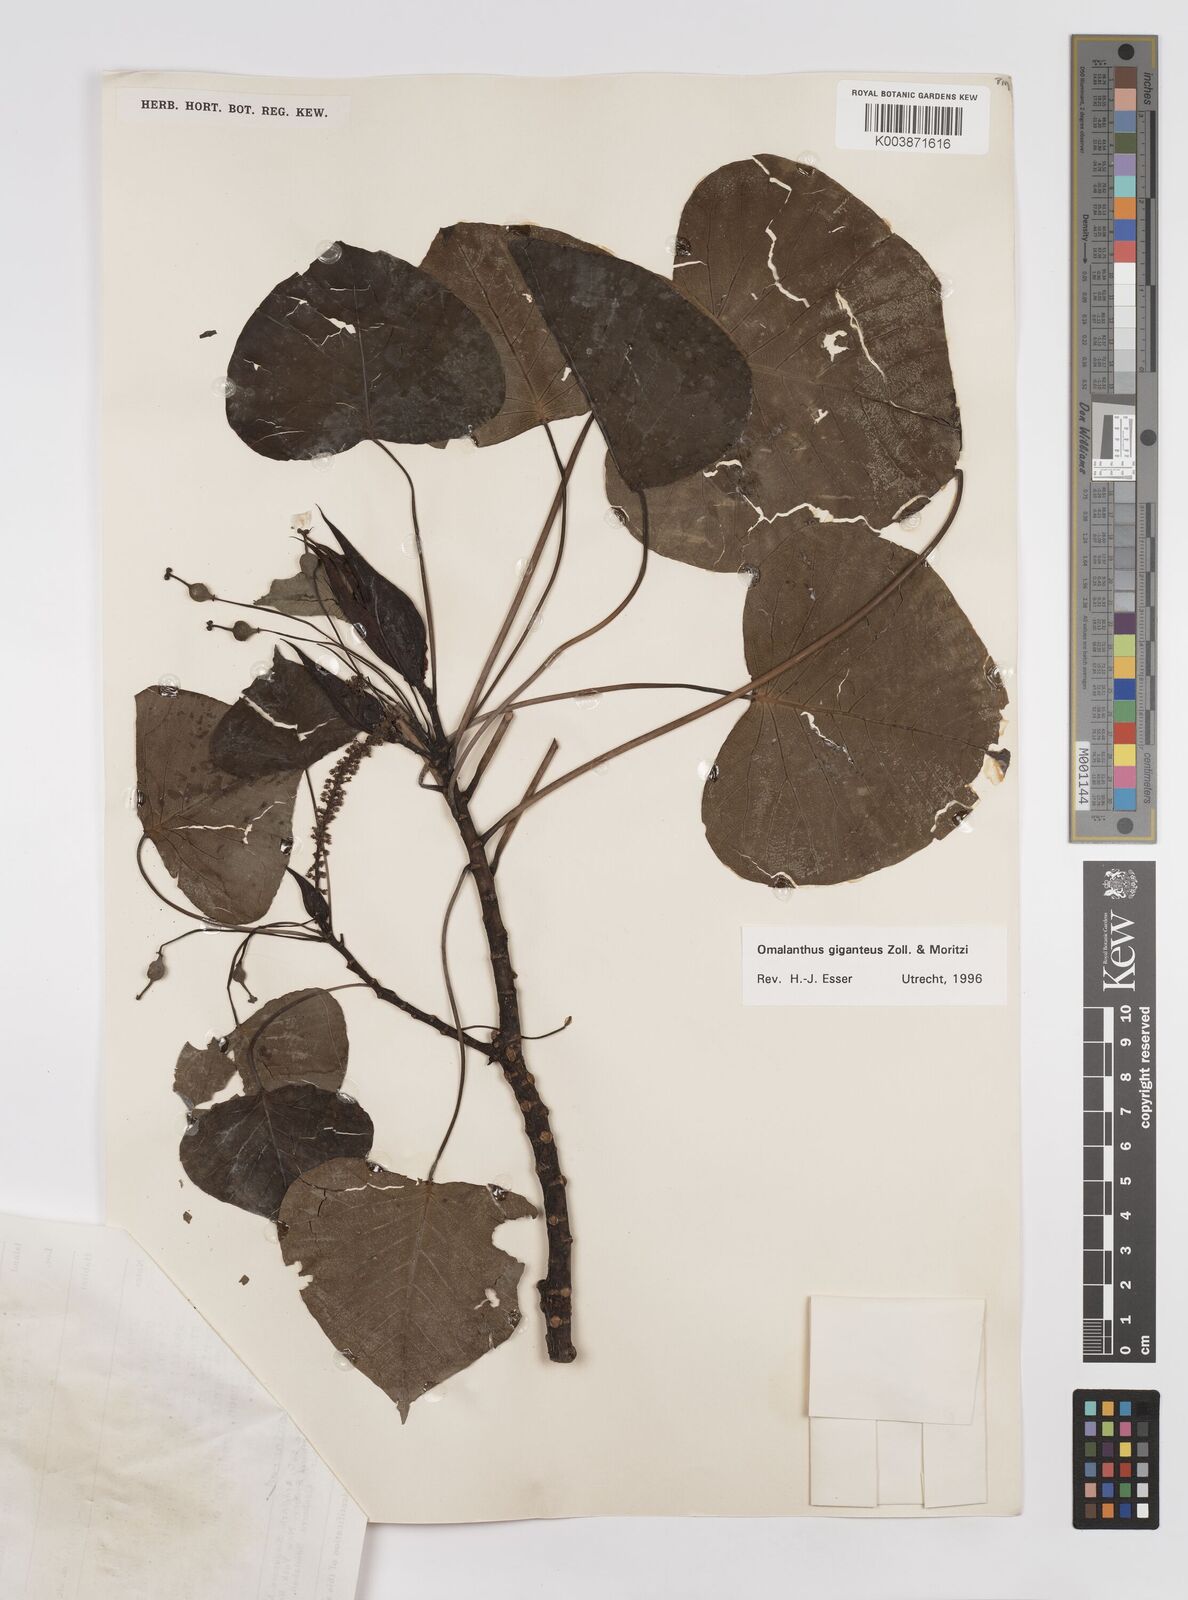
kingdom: Plantae
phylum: Tracheophyta
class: Magnoliopsida
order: Malpighiales
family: Euphorbiaceae
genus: Homalanthus
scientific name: Homalanthus giganteus
